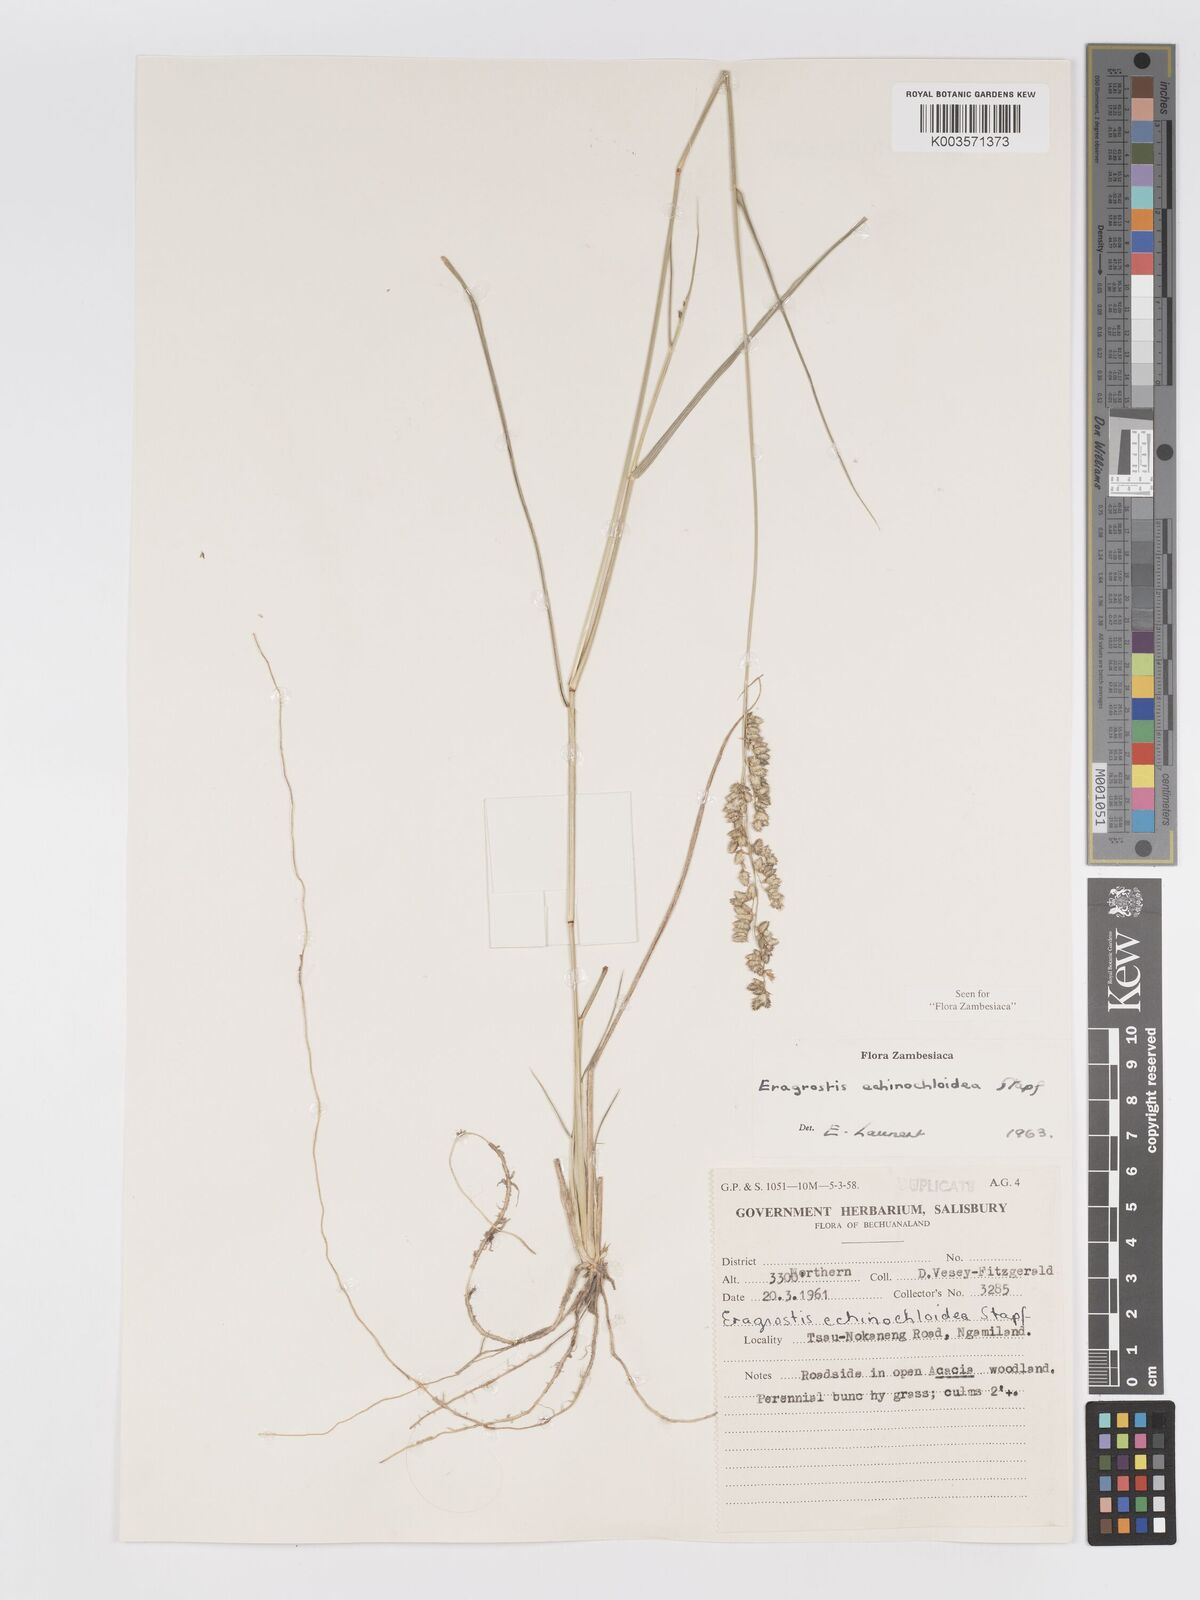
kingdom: Plantae
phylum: Tracheophyta
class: Liliopsida
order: Poales
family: Poaceae
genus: Eragrostis
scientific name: Eragrostis echinochloidea
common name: African lovegrass
